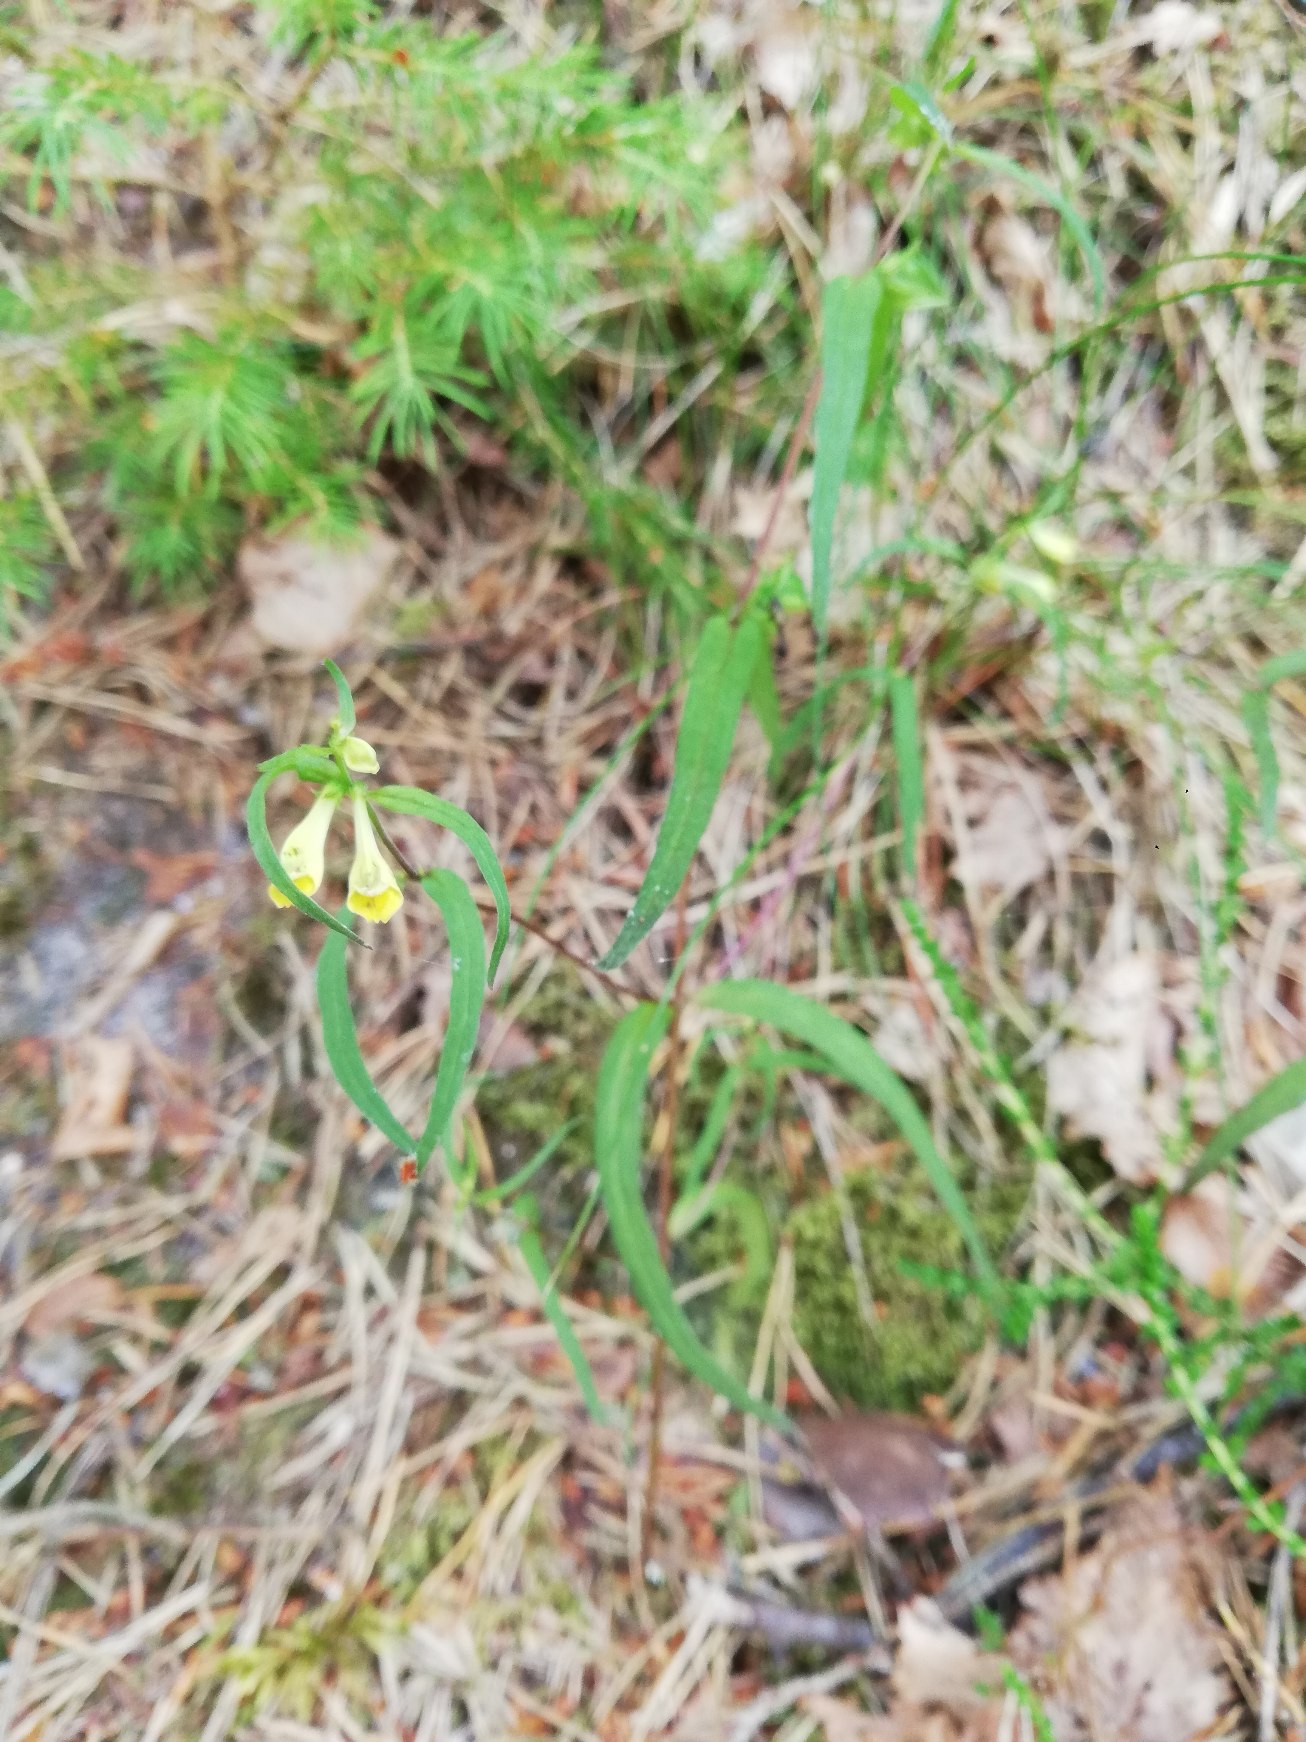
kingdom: Plantae
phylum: Tracheophyta
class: Magnoliopsida
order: Lamiales
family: Orobanchaceae
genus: Melampyrum
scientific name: Melampyrum pratense
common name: Almindelig kohvede
